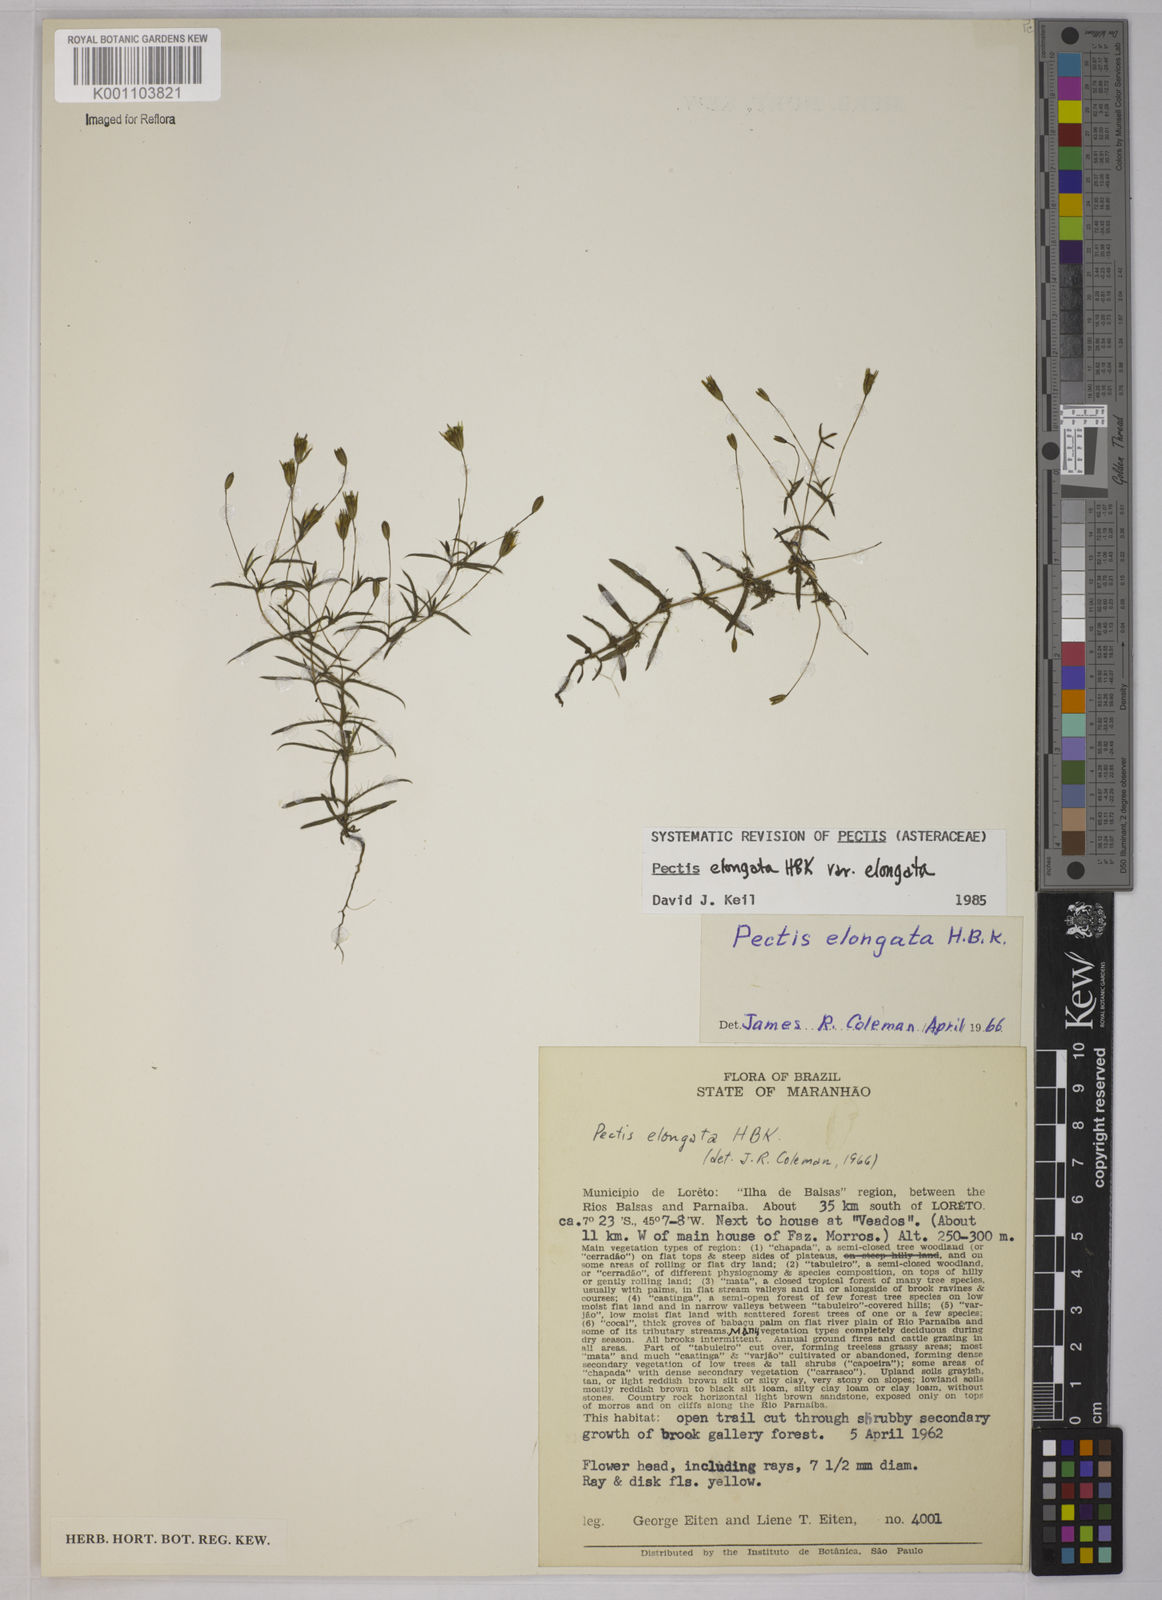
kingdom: Plantae
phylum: Tracheophyta
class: Magnoliopsida
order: Asterales
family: Asteraceae
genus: Pectis
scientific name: Pectis elongata
